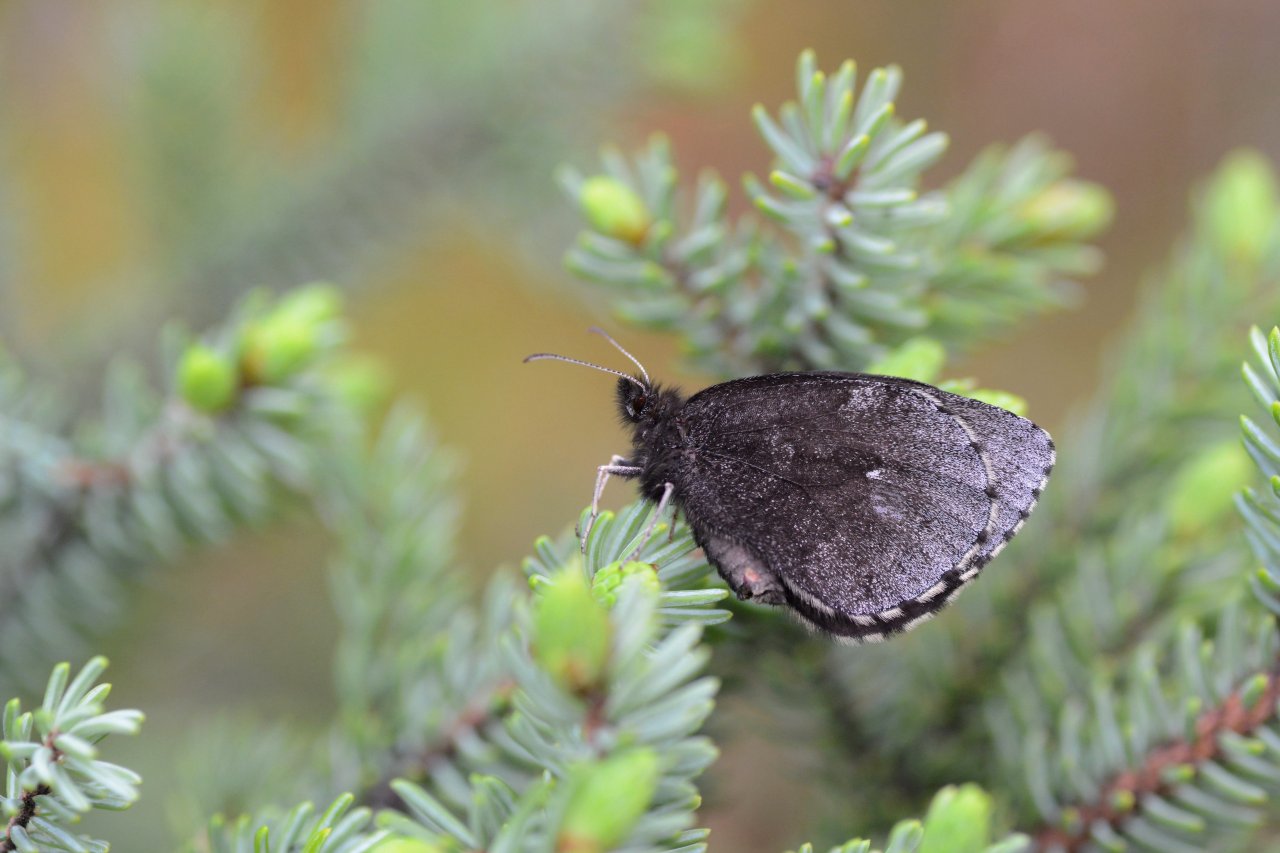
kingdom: Animalia
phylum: Arthropoda
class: Insecta
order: Lepidoptera
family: Nymphalidae
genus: Erebia
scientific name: Erebia disa
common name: Taiga Alpine
